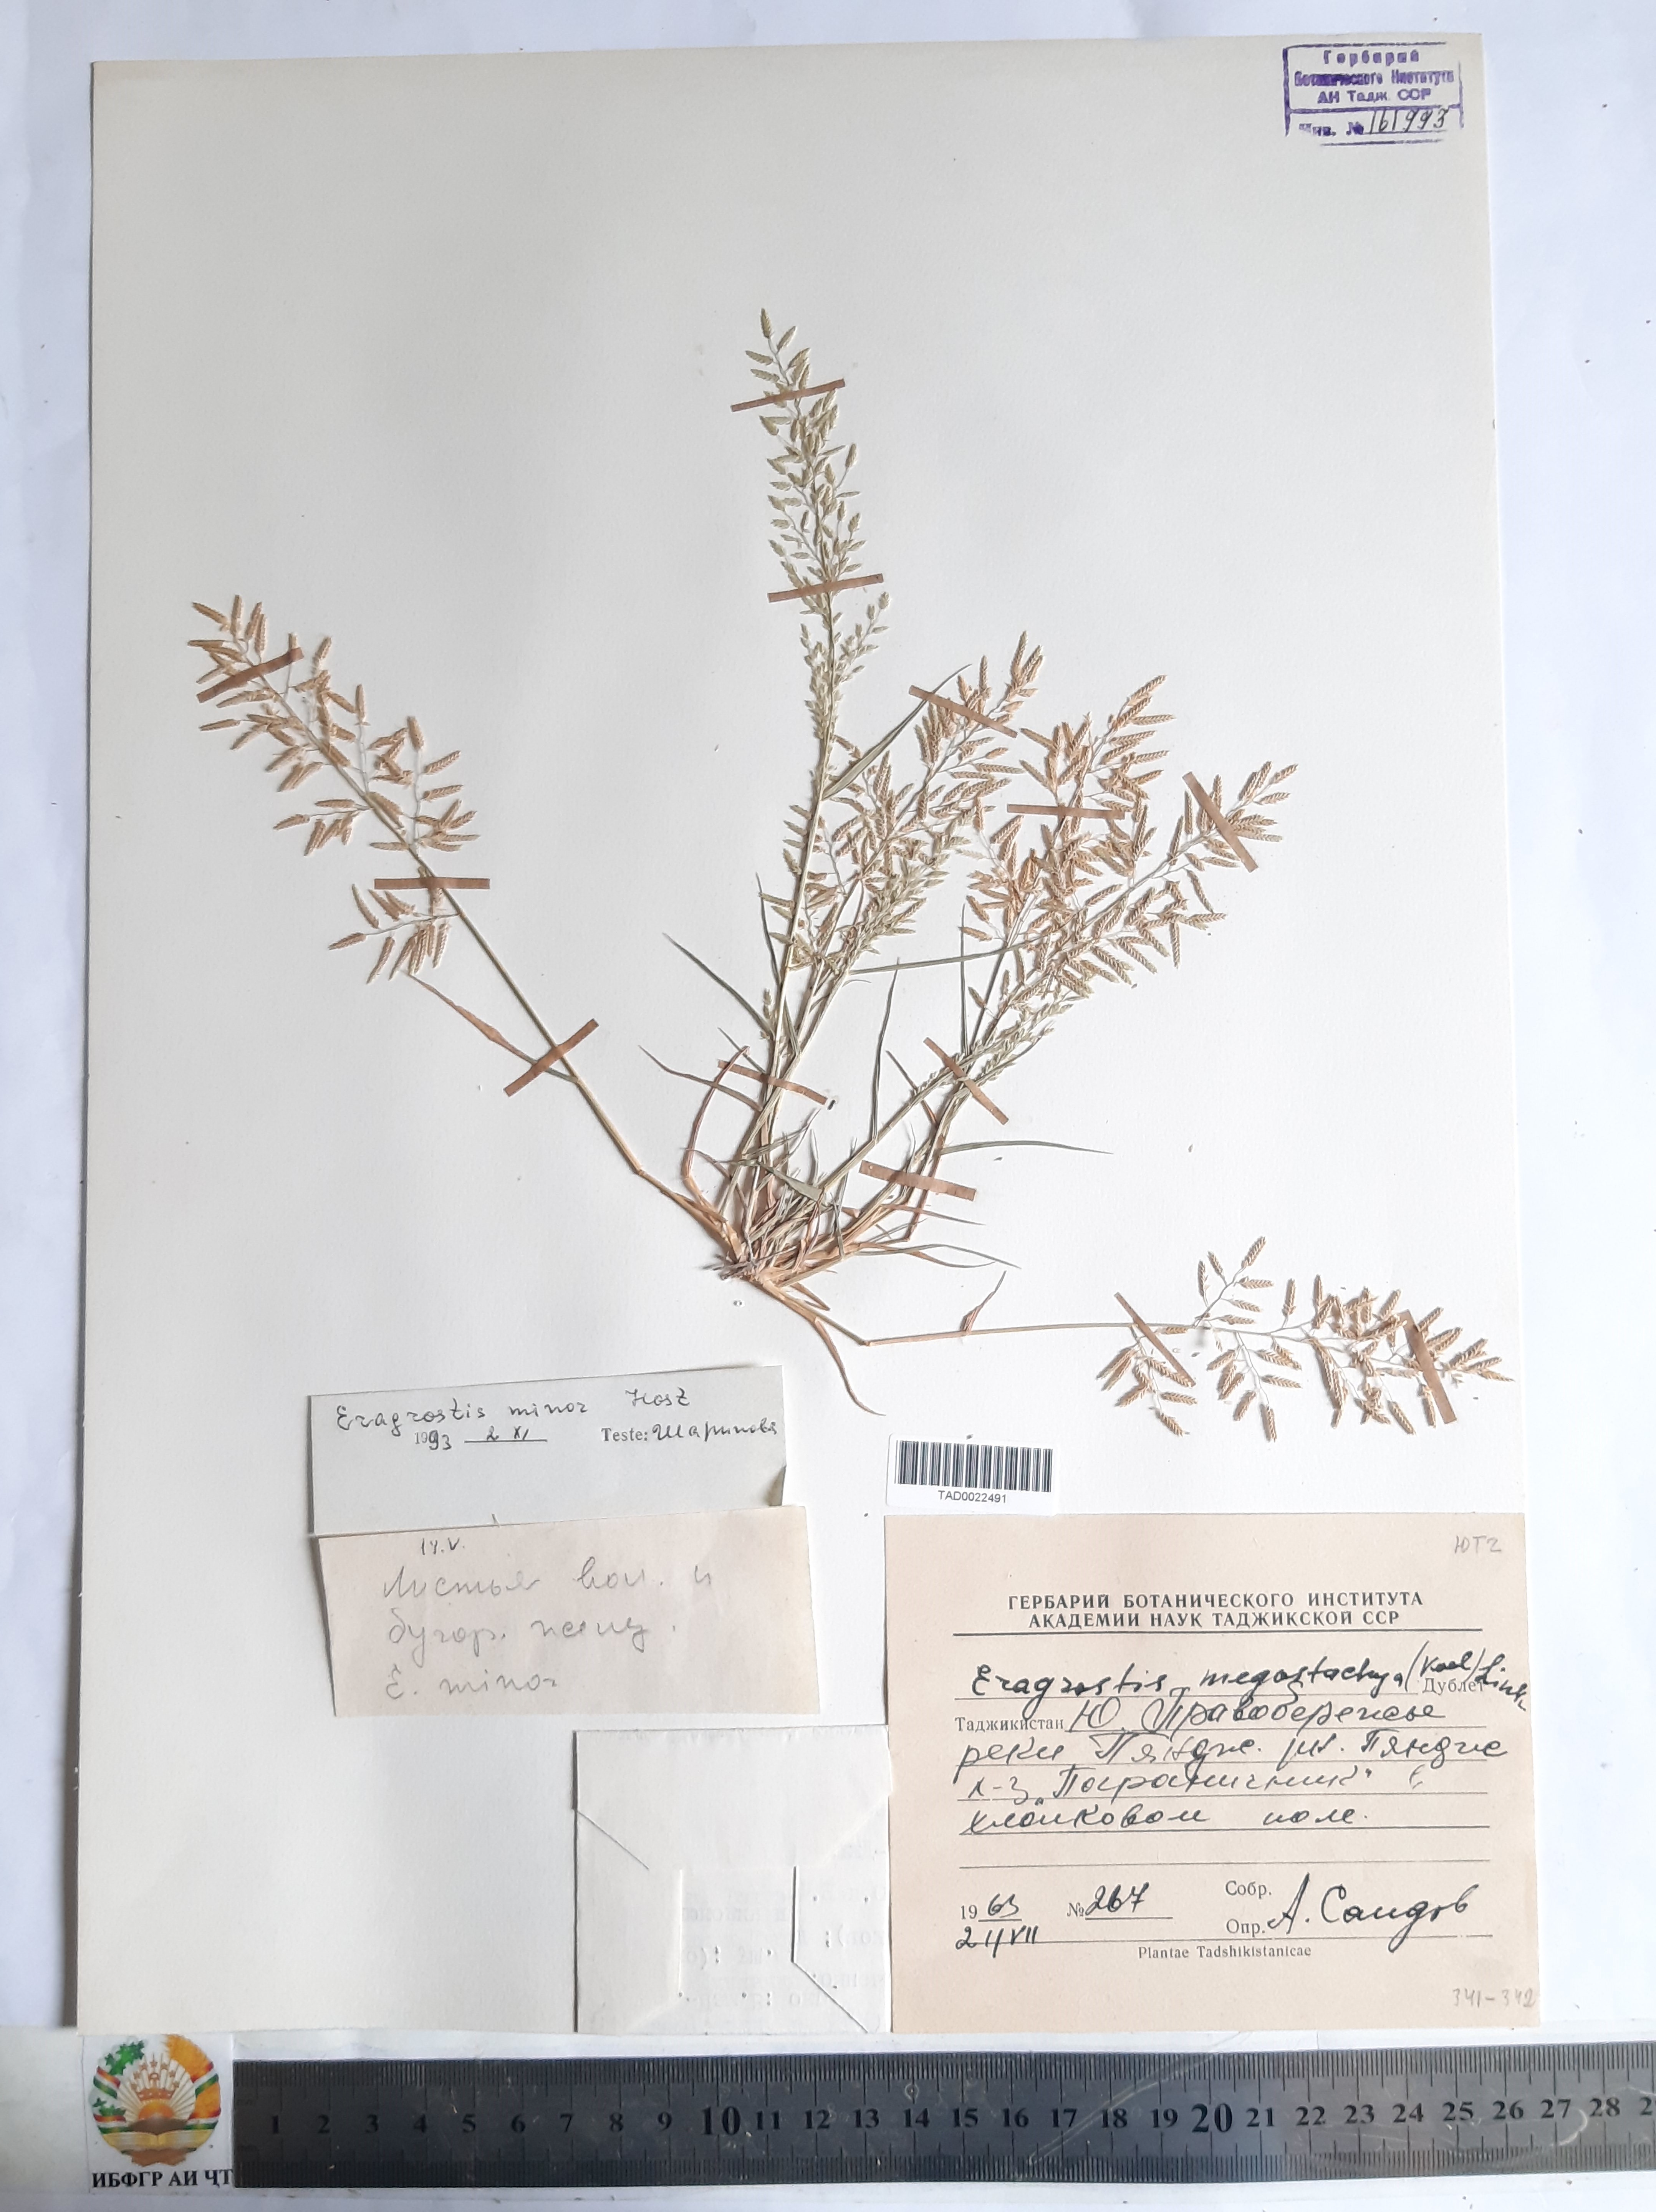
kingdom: Plantae
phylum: Tracheophyta
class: Liliopsida
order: Poales
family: Poaceae
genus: Eragrostis
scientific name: Eragrostis minor
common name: Small love-grass
